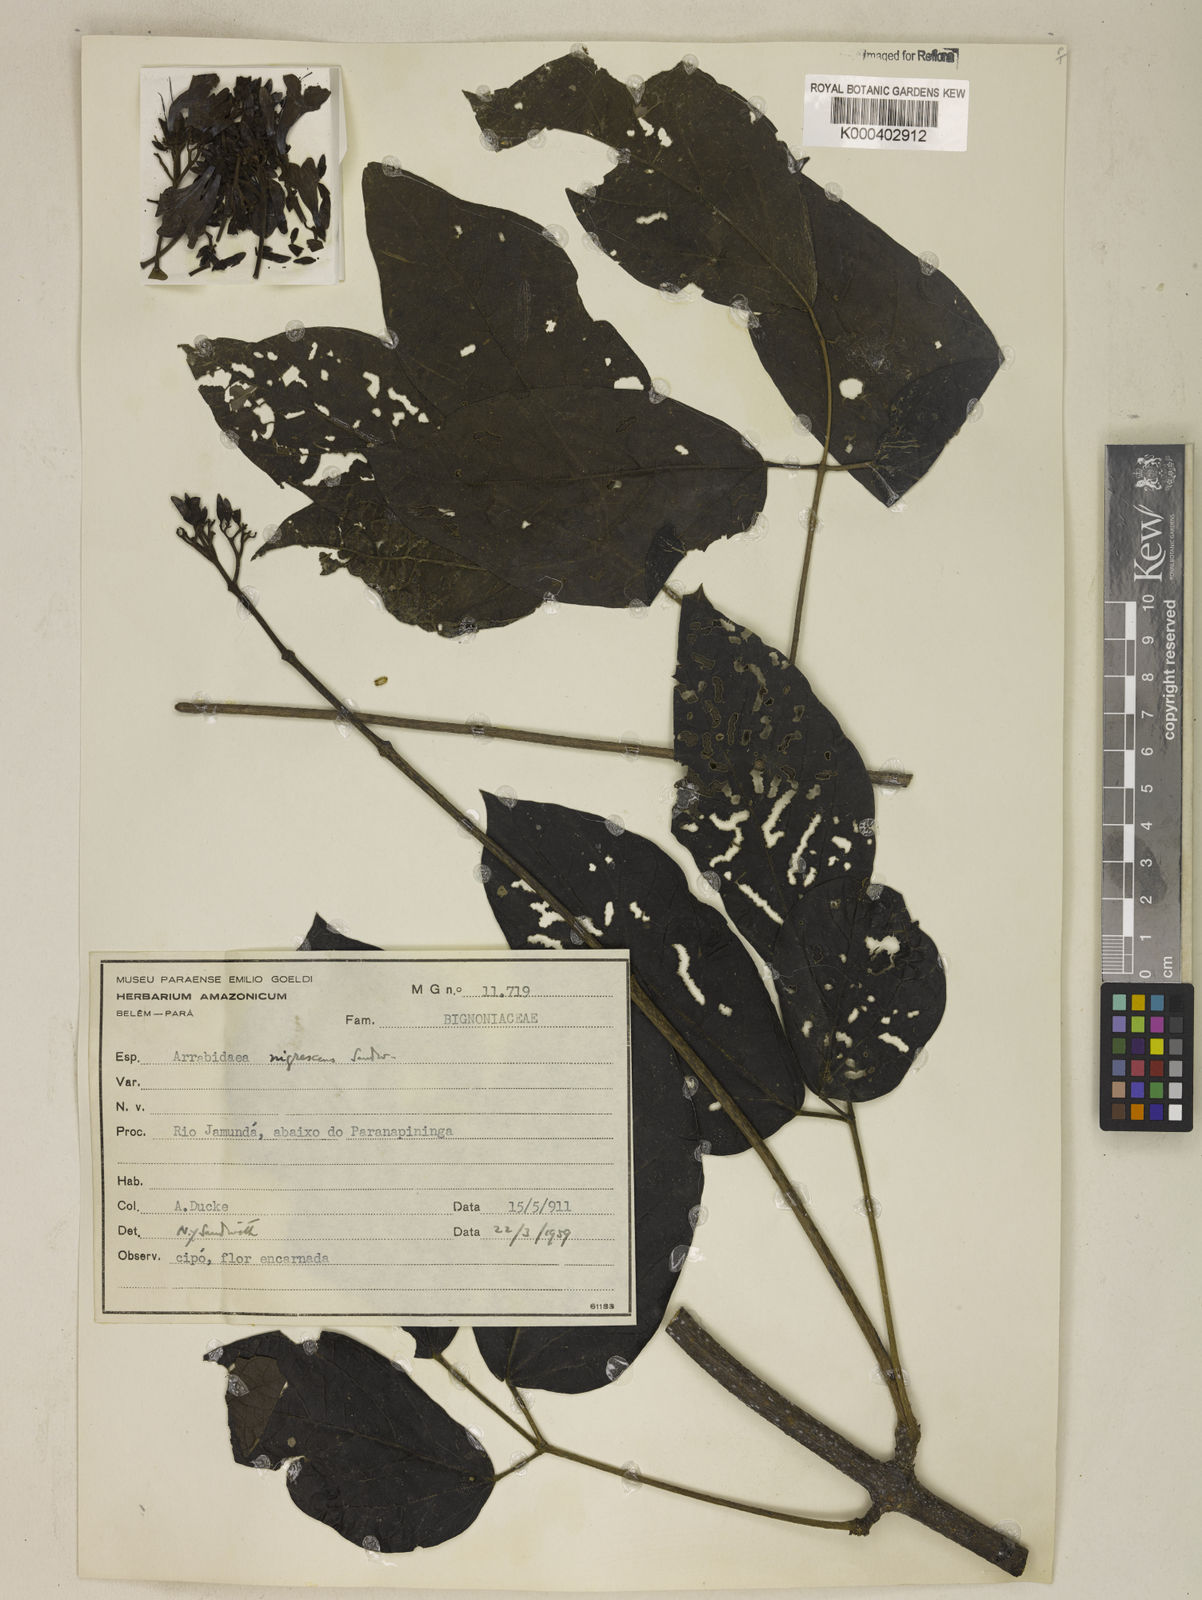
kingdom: Plantae
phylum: Tracheophyta
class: Magnoliopsida
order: Lamiales
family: Bignoniaceae
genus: Fridericia
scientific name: Fridericia nigrescens
